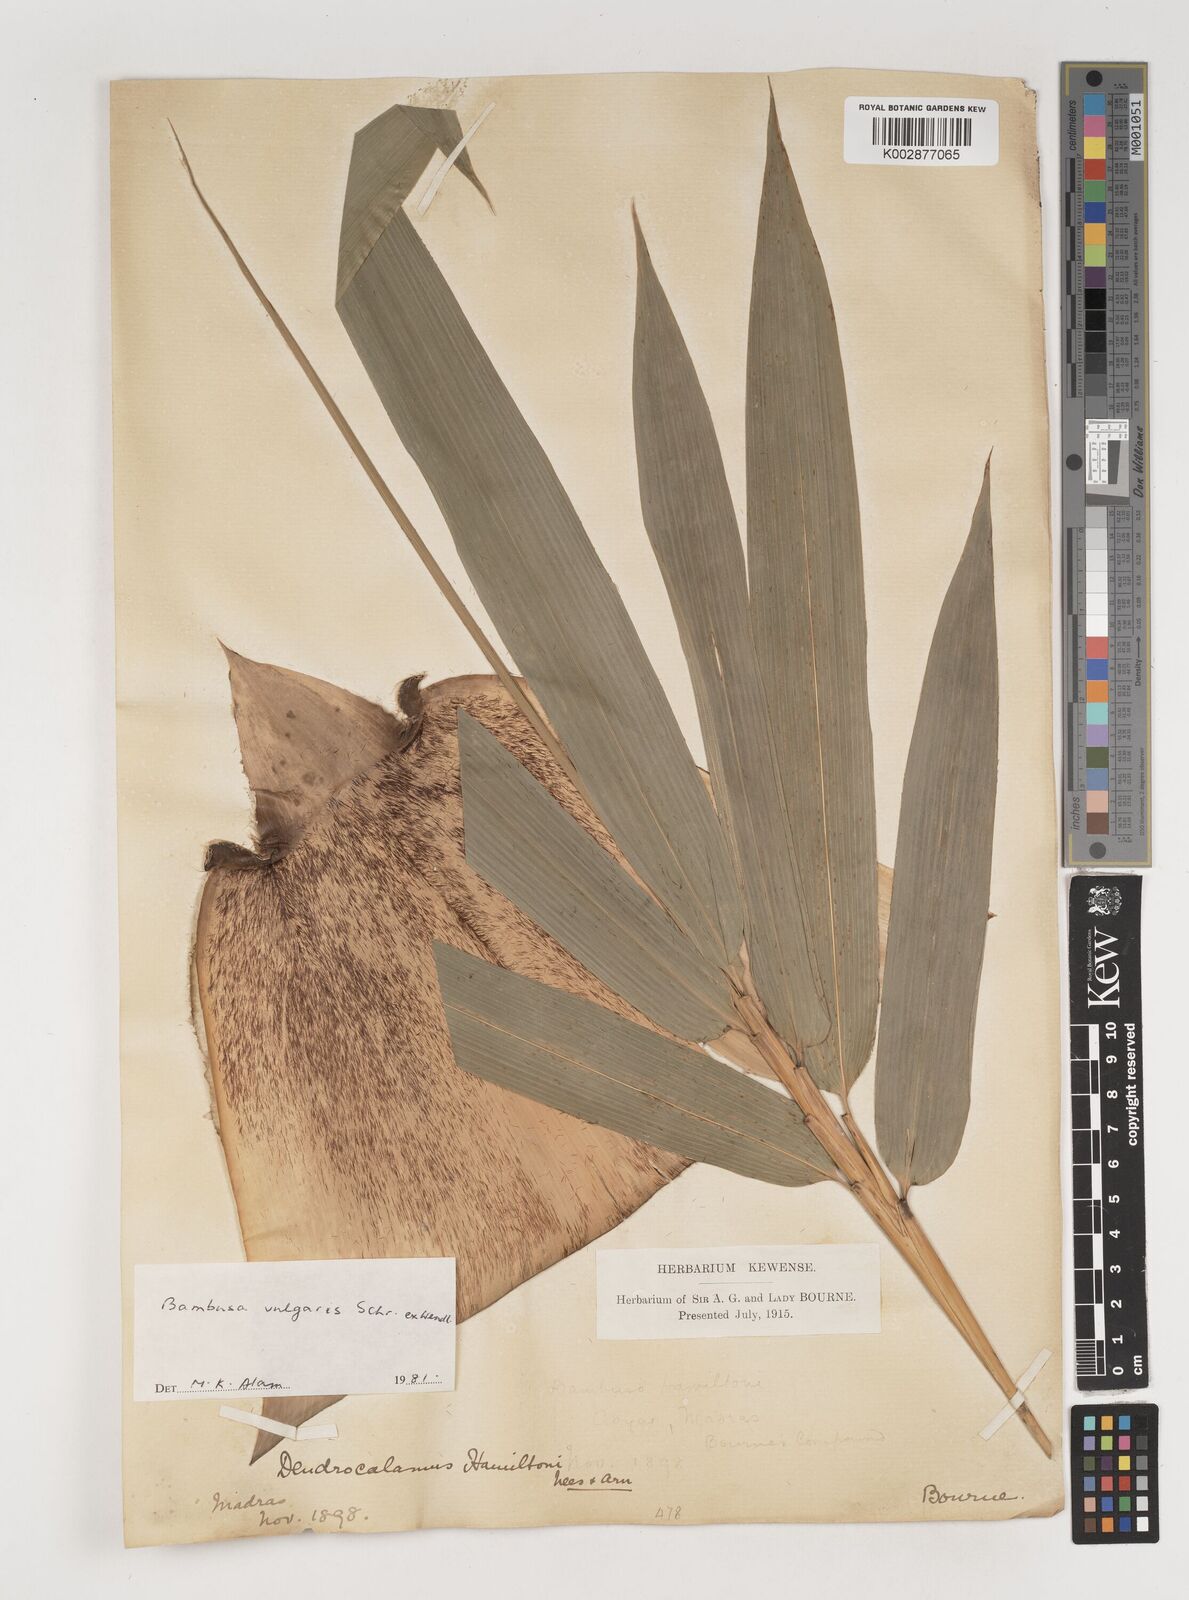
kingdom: Plantae
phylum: Tracheophyta
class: Liliopsida
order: Poales
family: Poaceae
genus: Bambusa
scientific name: Bambusa vulgaris
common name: Common bamboo
